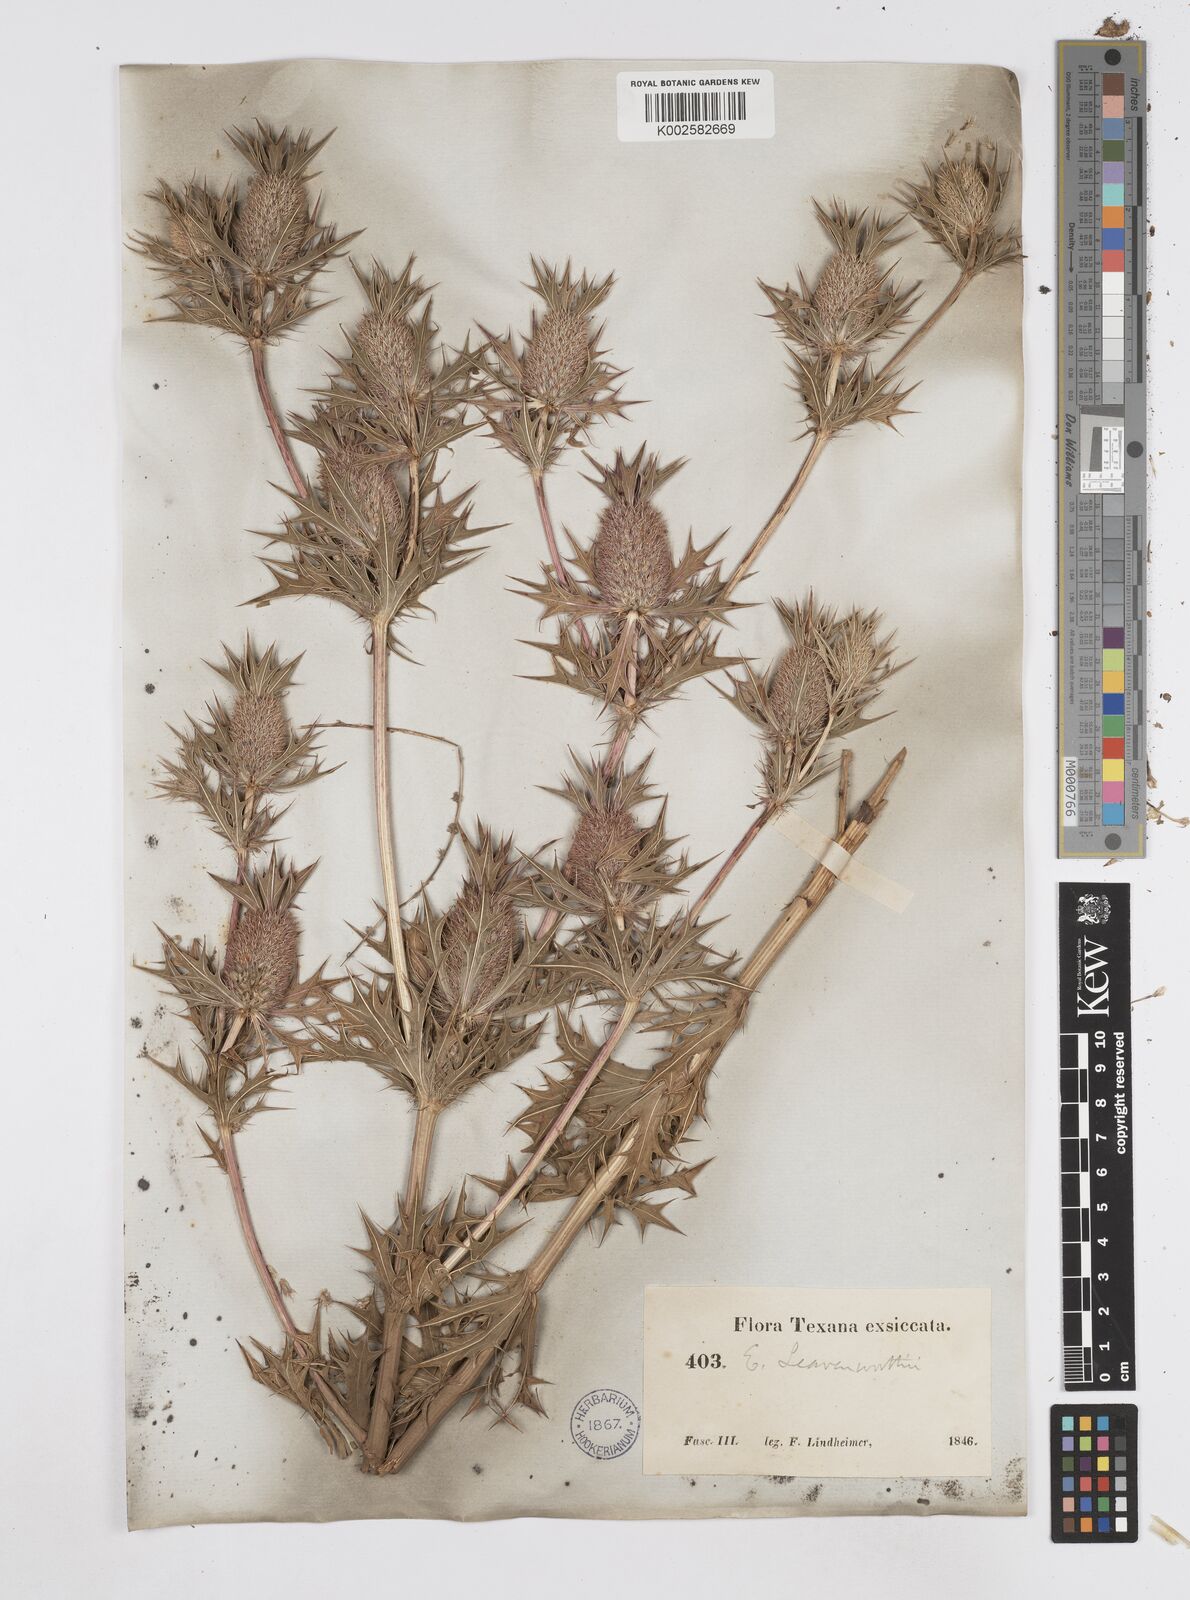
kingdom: Plantae
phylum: Tracheophyta
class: Magnoliopsida
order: Apiales
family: Apiaceae
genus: Eryngium
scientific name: Eryngium leavenworthii
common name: Leavenworth's eryngo
